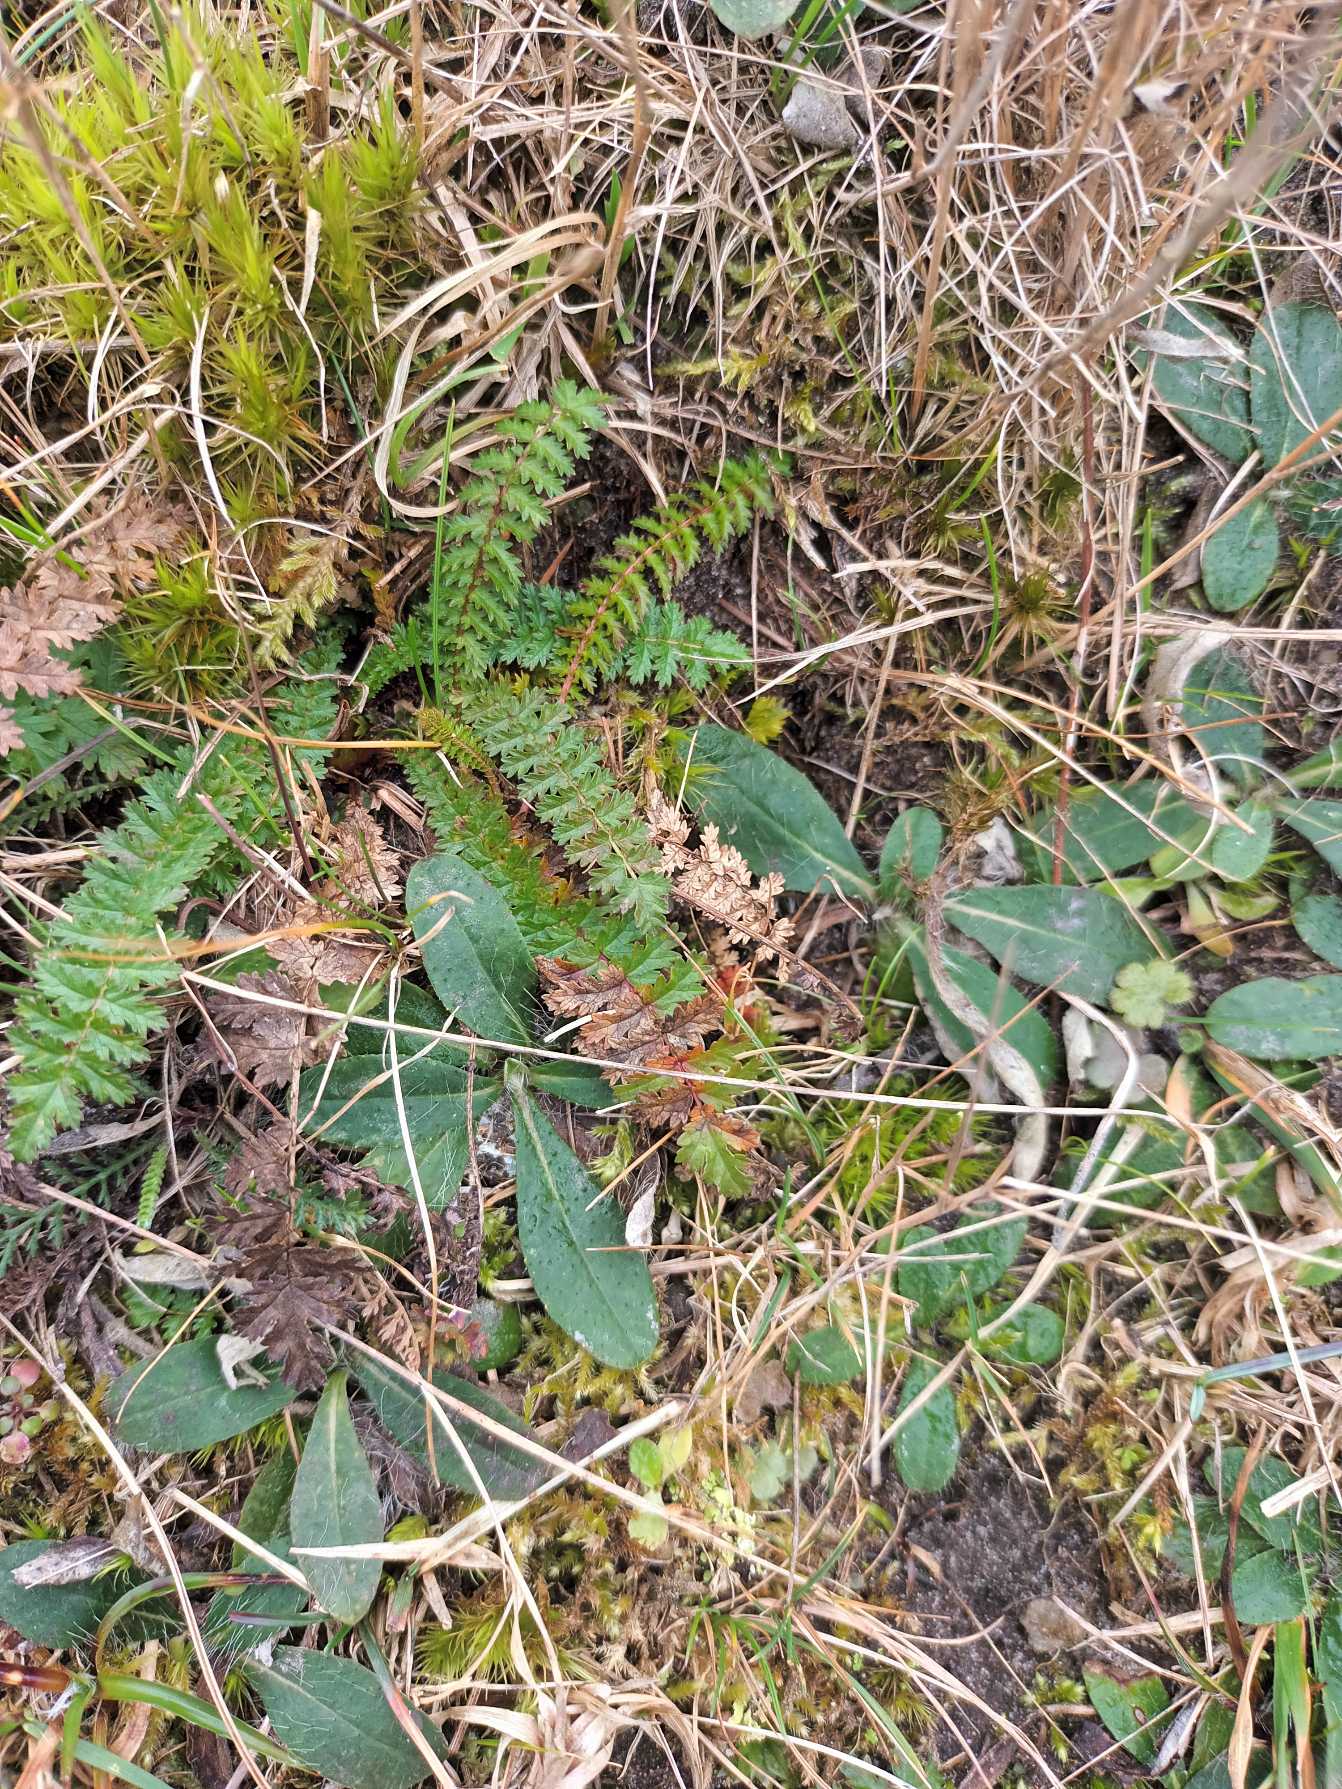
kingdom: Plantae
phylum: Tracheophyta
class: Magnoliopsida
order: Rosales
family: Rosaceae
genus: Filipendula
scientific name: Filipendula vulgaris
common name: Knoldet mjødurt
